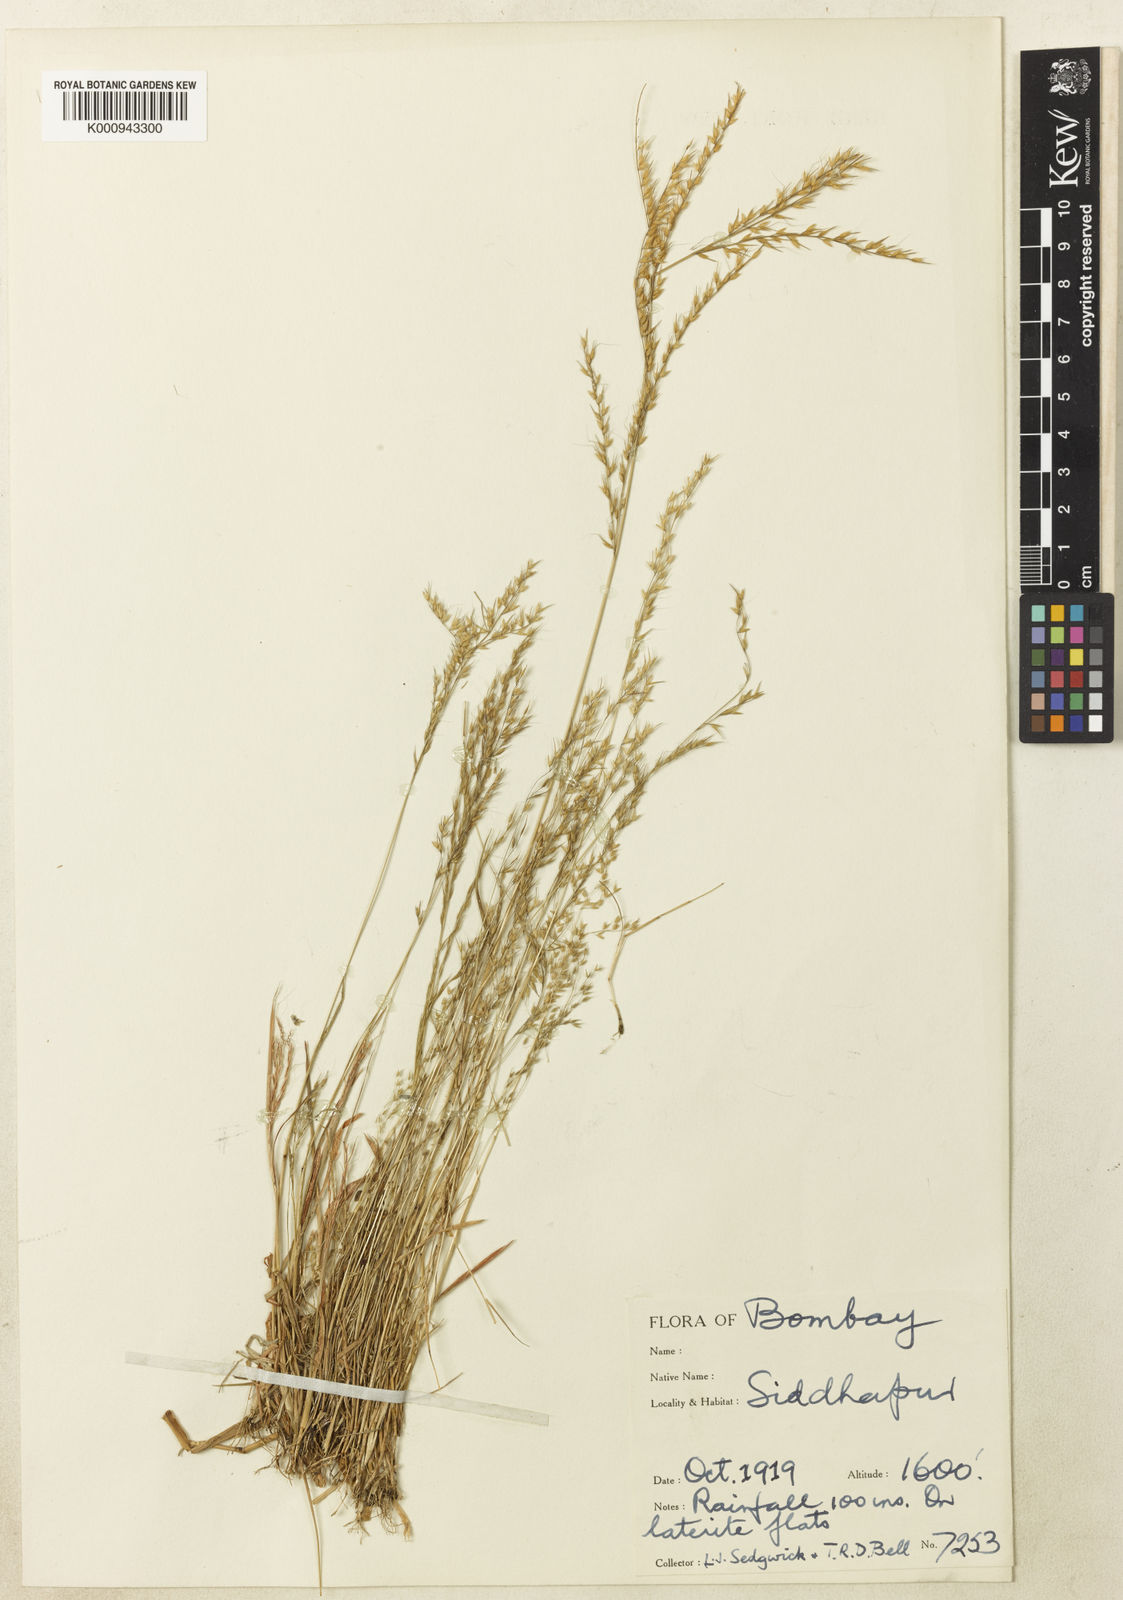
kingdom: Plantae
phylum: Tracheophyta
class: Liliopsida
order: Poales
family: Poaceae
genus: Arundinella
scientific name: Arundinella nervosa
